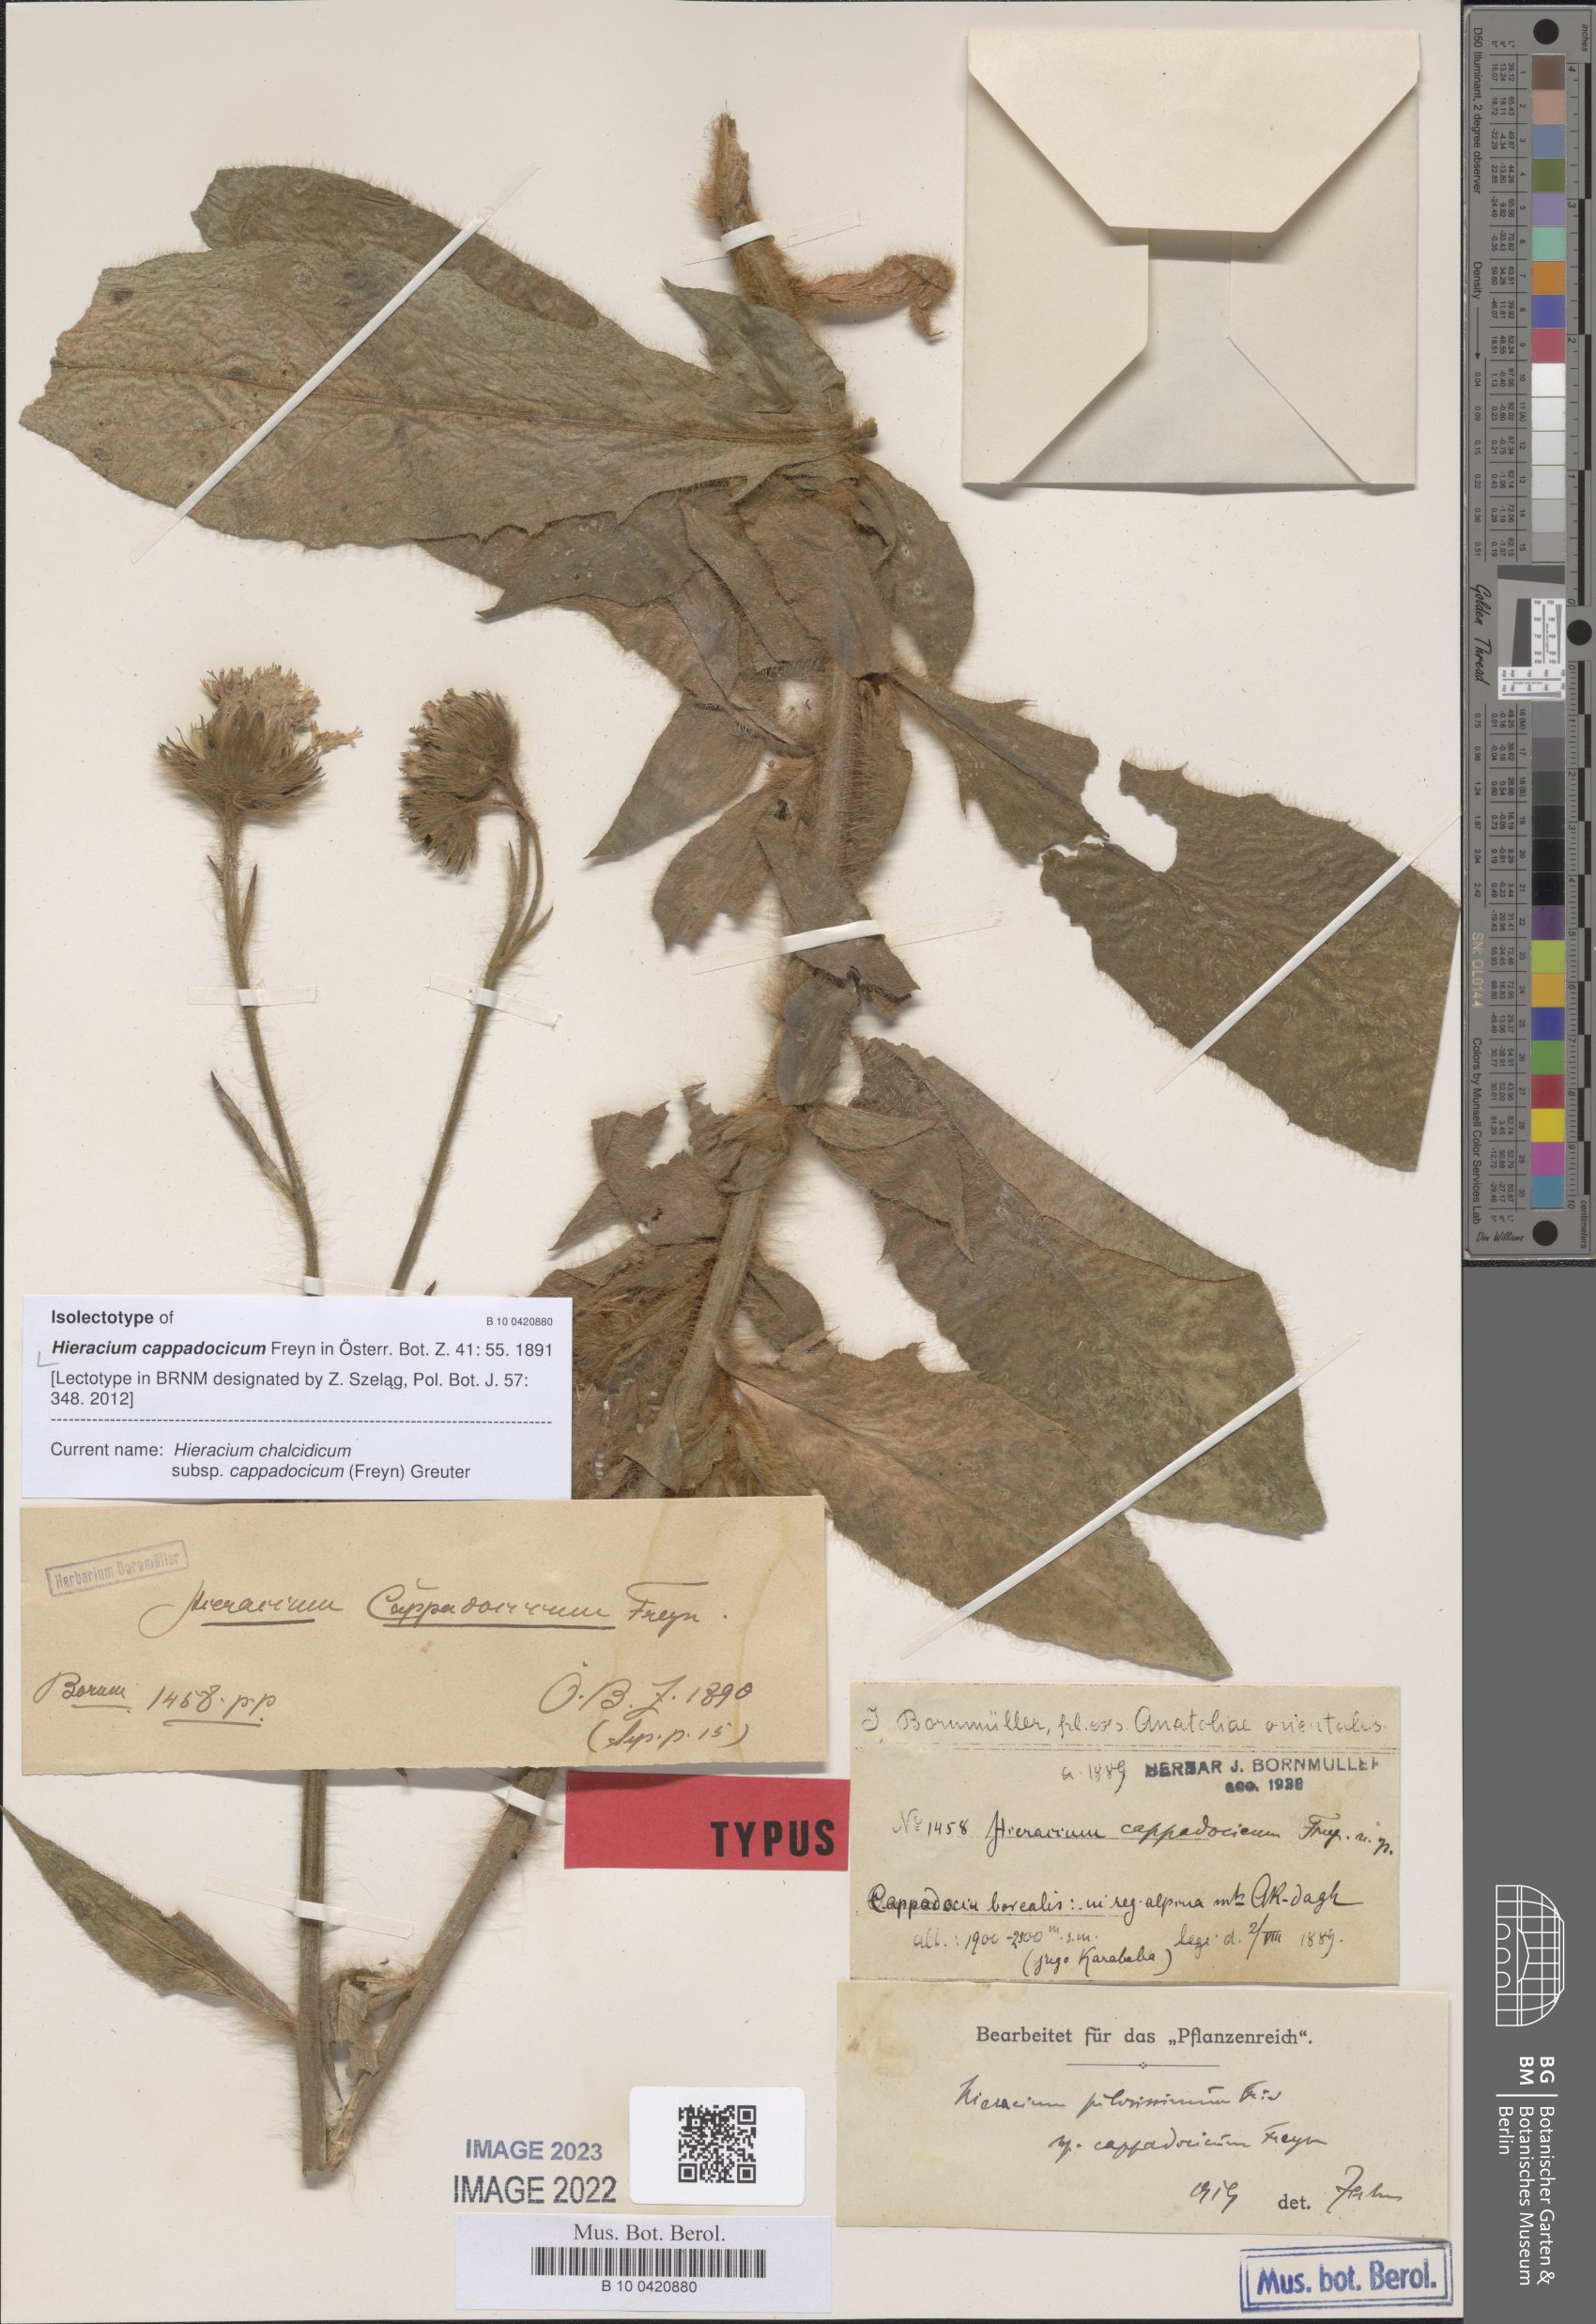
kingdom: Plantae
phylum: Tracheophyta
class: Magnoliopsida
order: Asterales
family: Asteraceae
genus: Hieracium
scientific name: Hieracium chalcidicum
